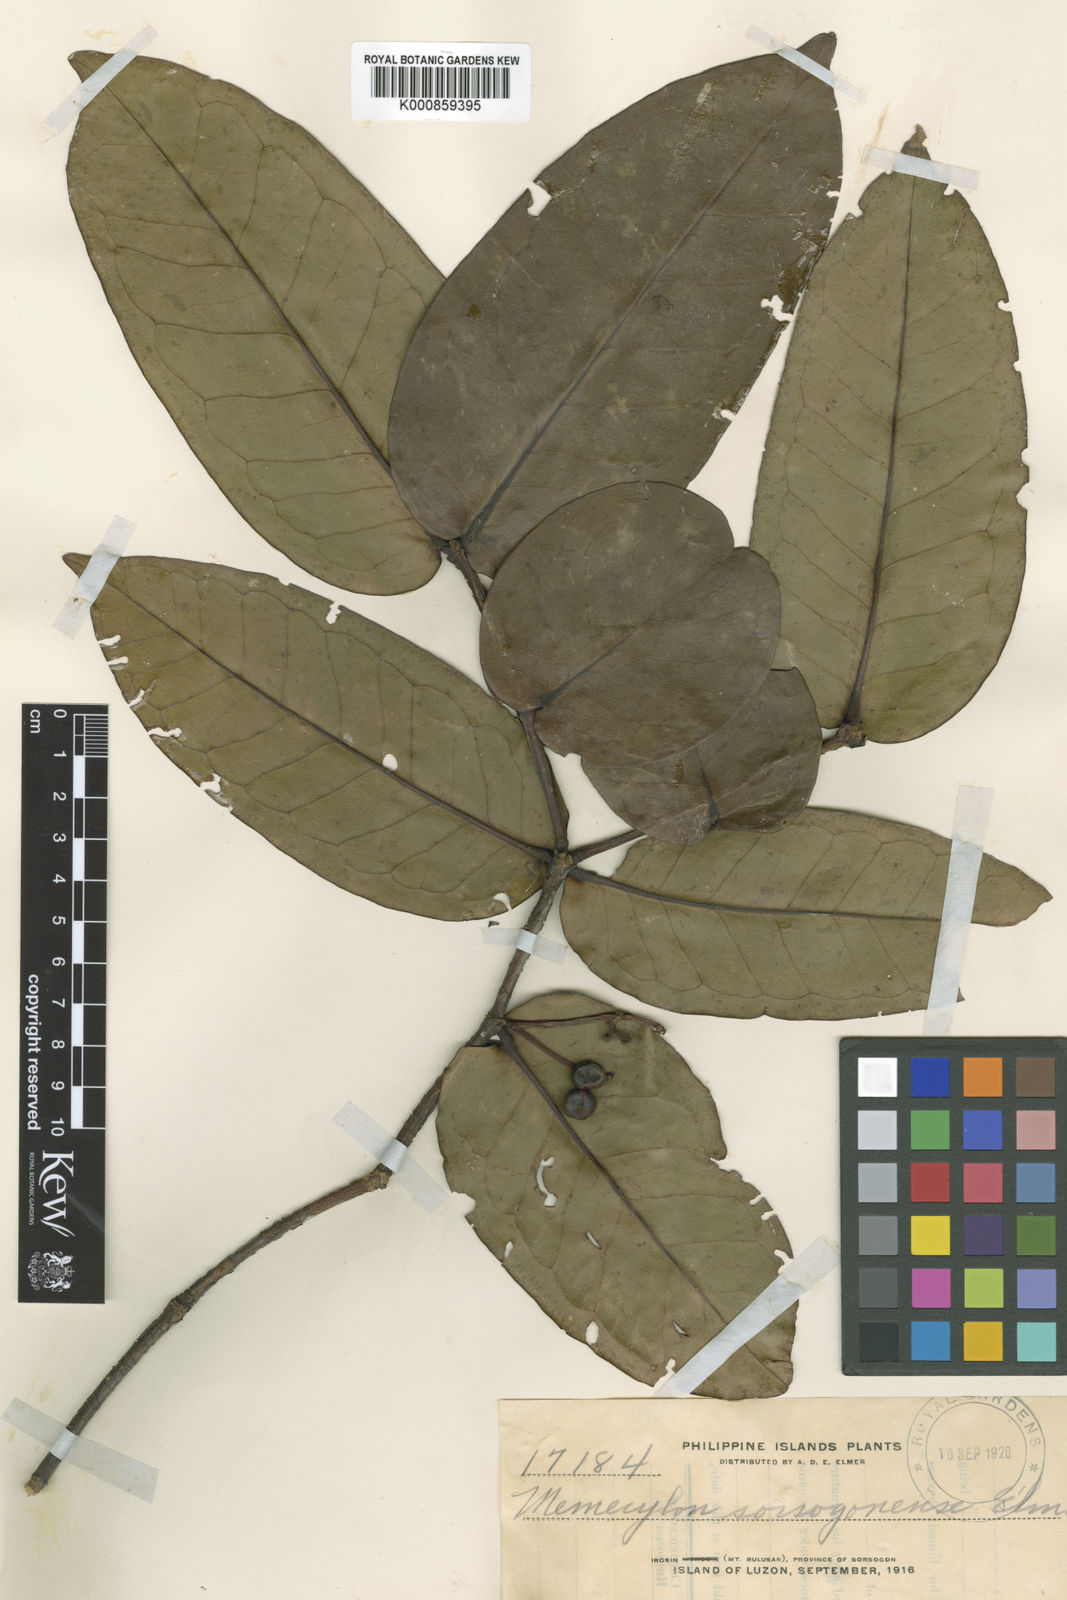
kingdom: Plantae
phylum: Tracheophyta
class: Magnoliopsida
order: Myrtales
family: Melastomataceae
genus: Memecylon
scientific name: Memecylon sorsogonense
